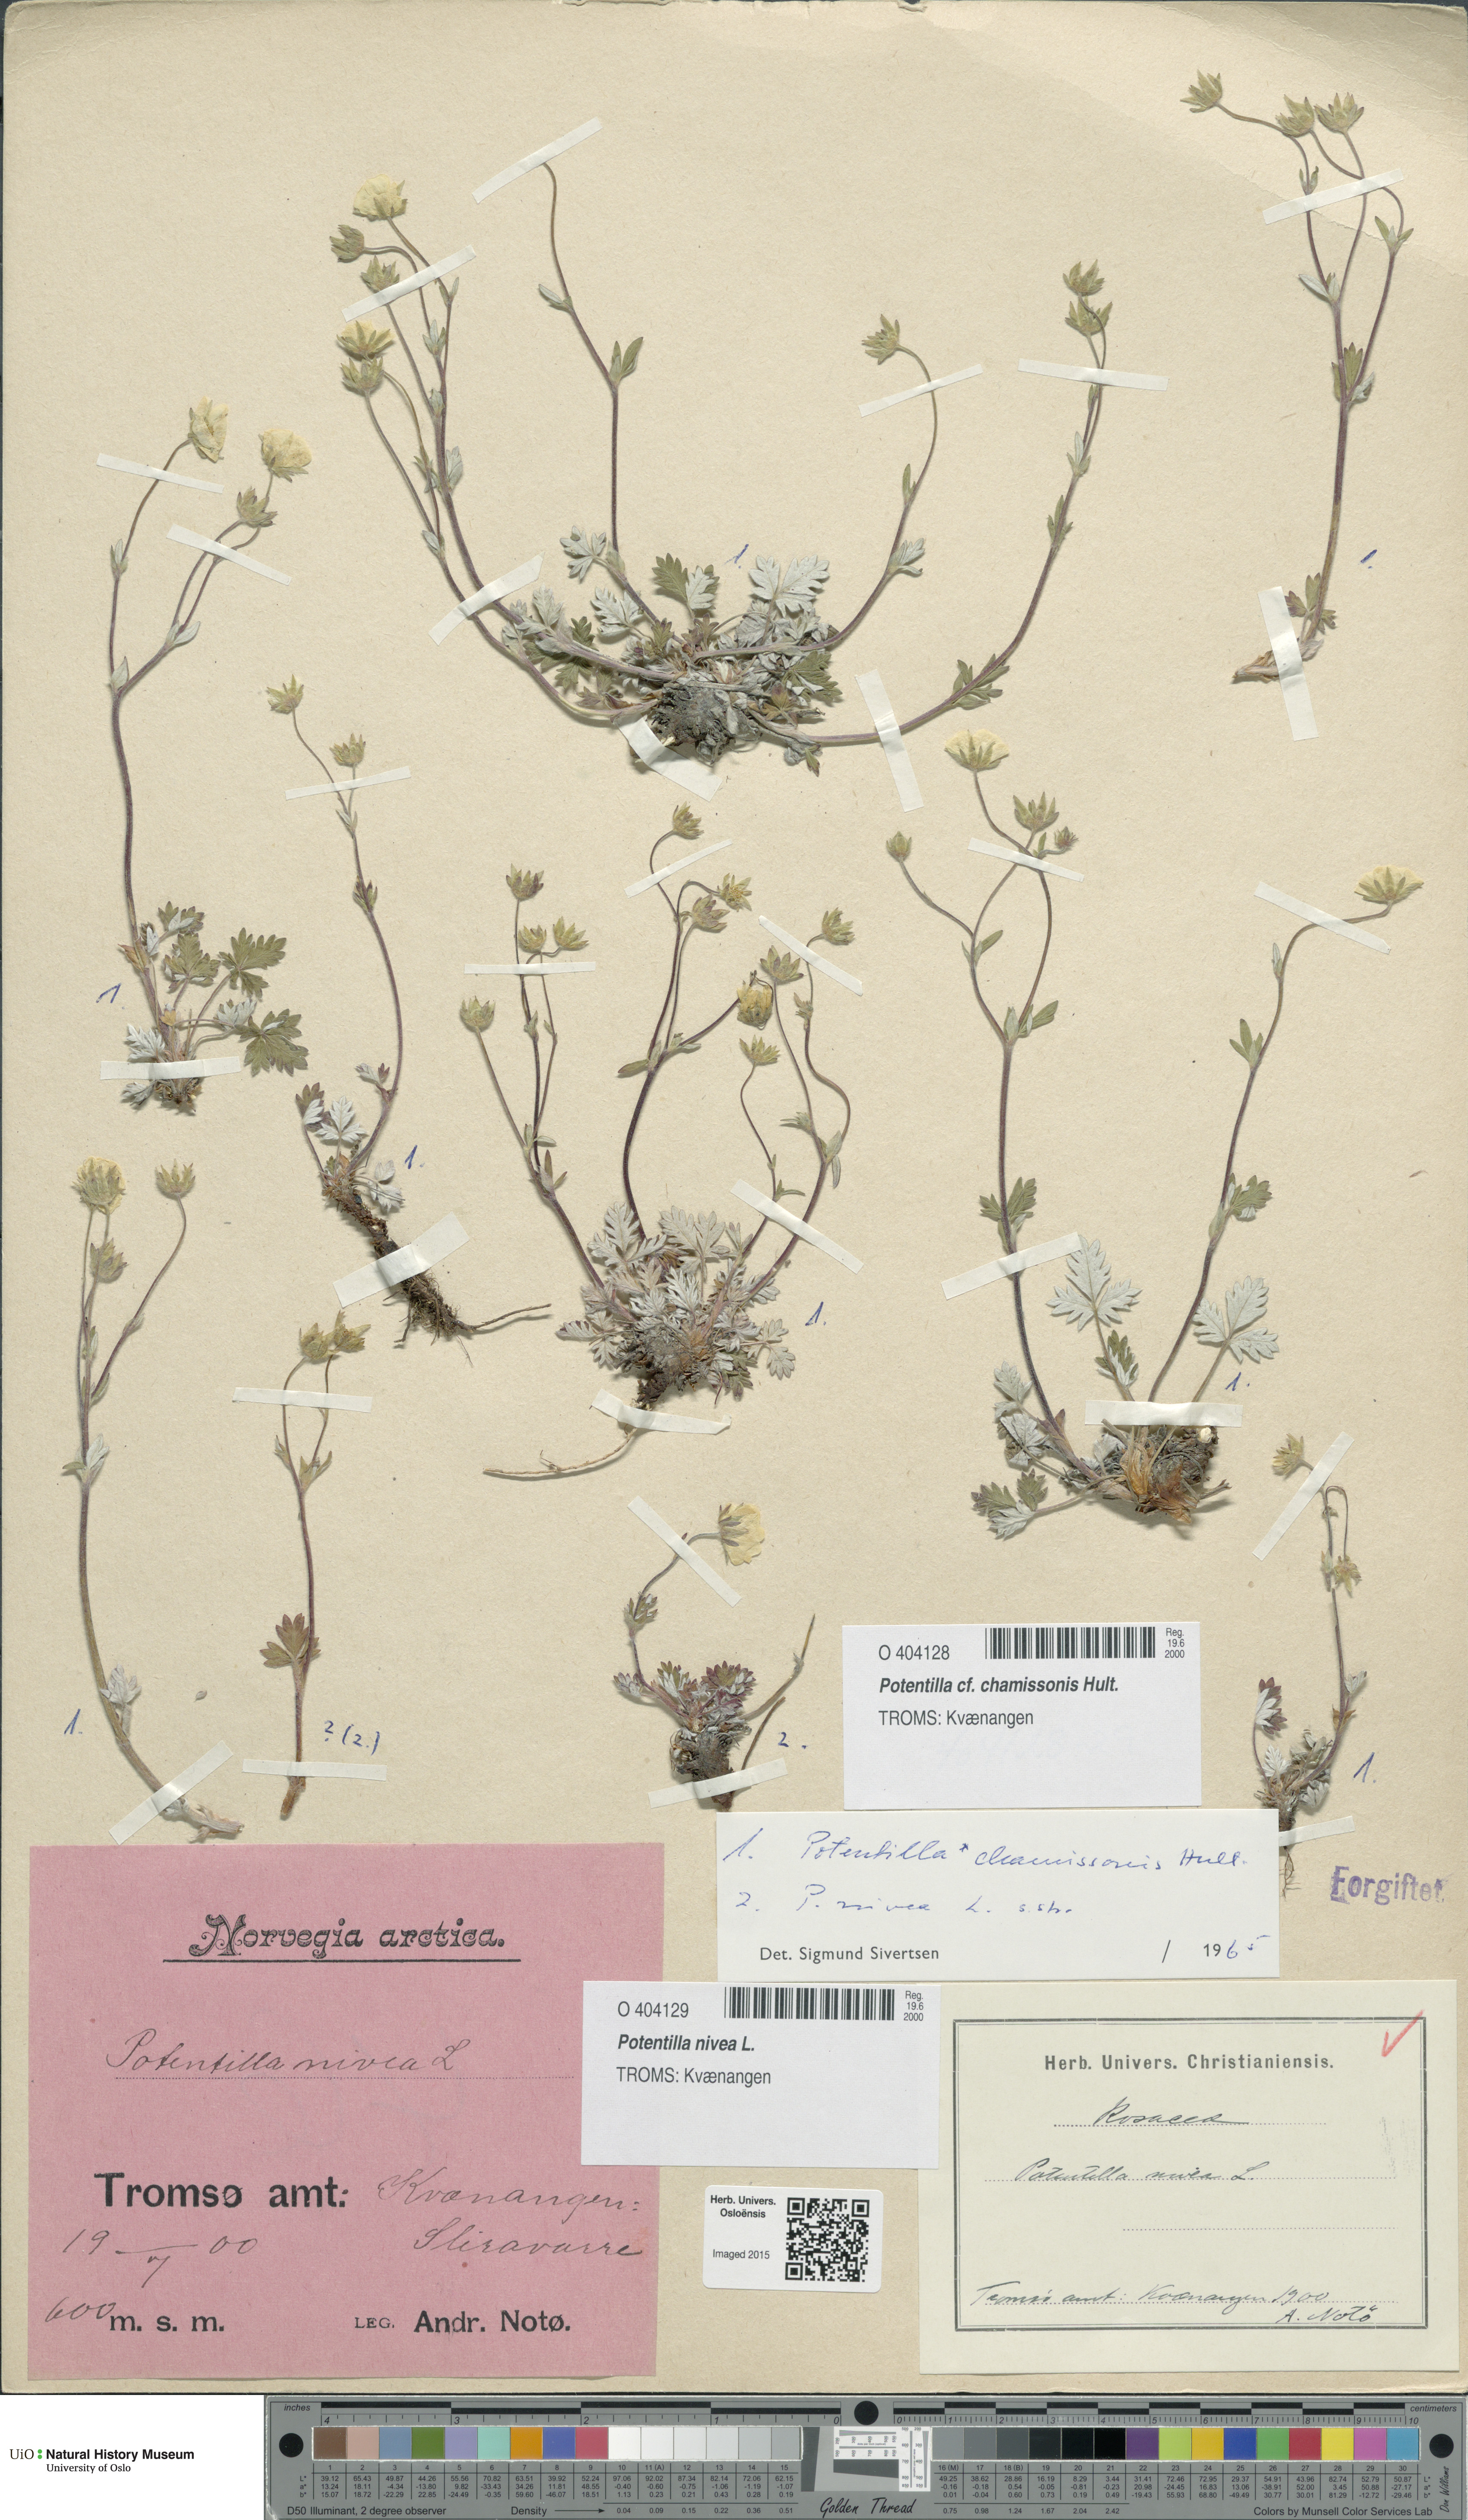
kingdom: Plantae
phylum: Tracheophyta
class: Magnoliopsida
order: Rosales
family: Rosaceae
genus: Potentilla
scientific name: Potentilla chamissonis
